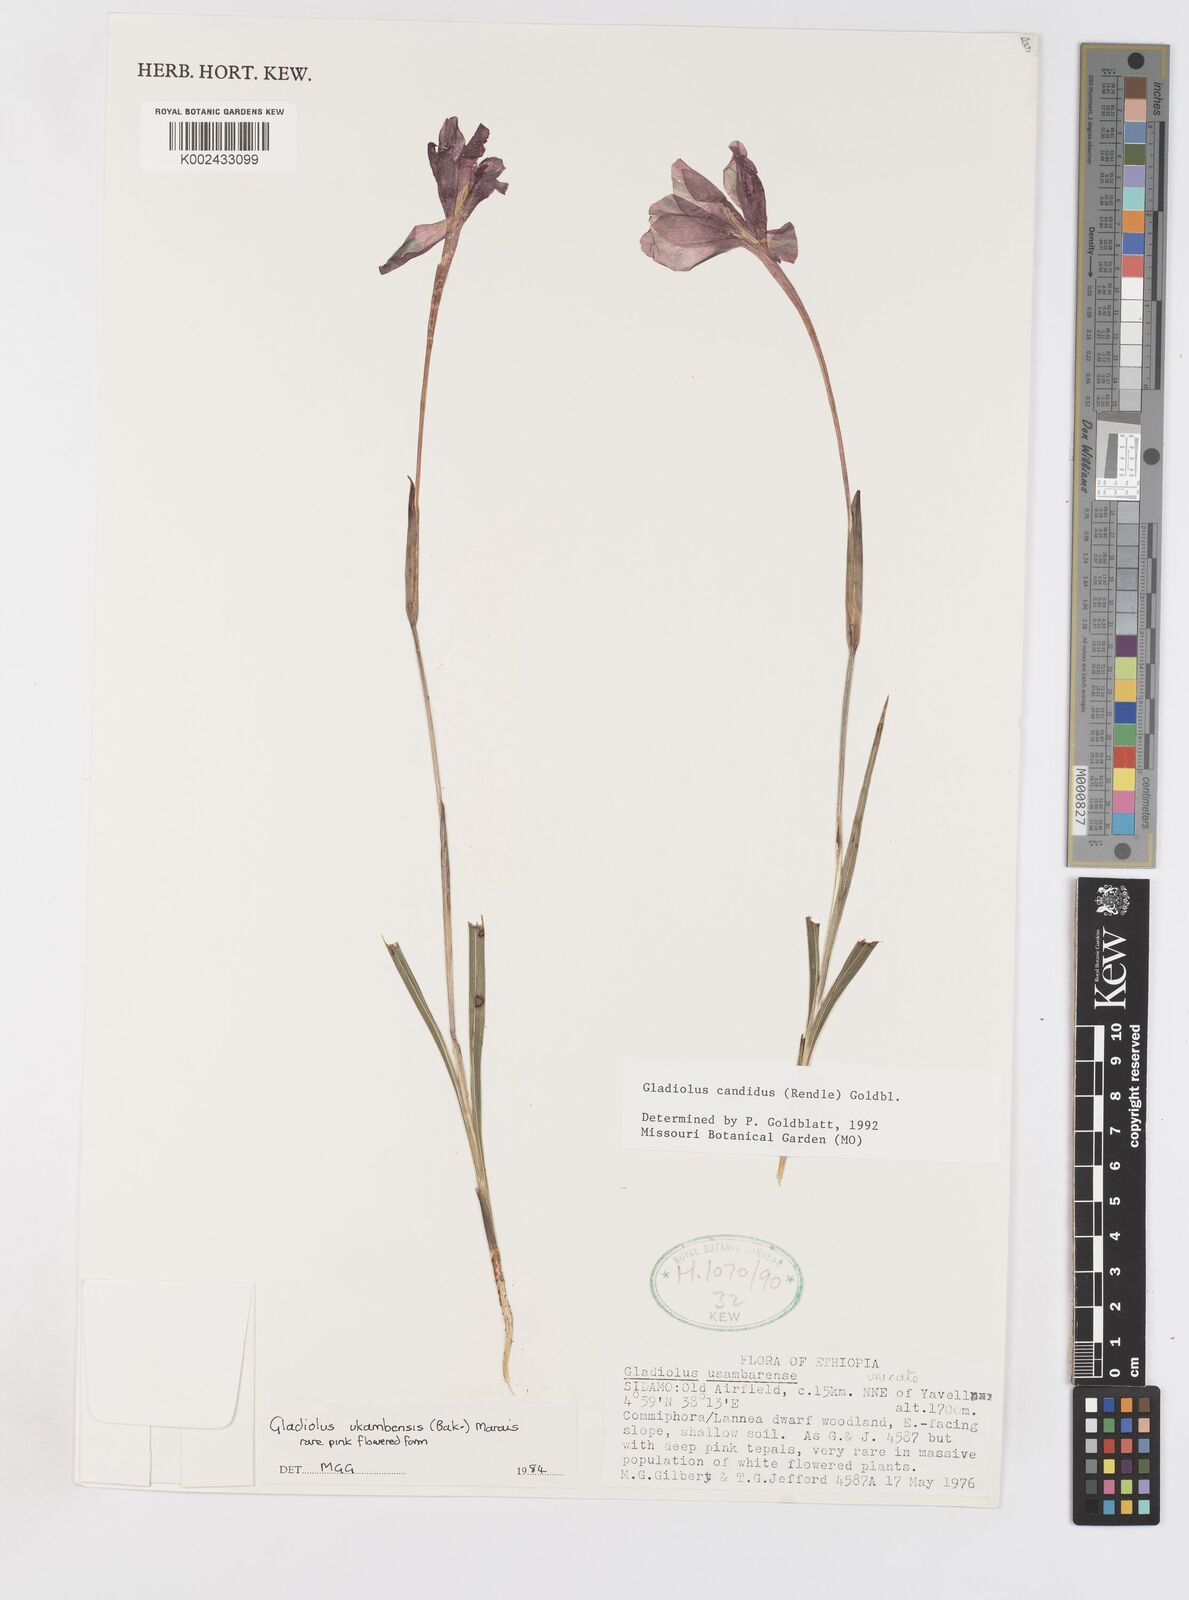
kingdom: Plantae
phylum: Tracheophyta
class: Liliopsida
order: Asparagales
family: Iridaceae
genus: Gladiolus
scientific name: Gladiolus candidus
